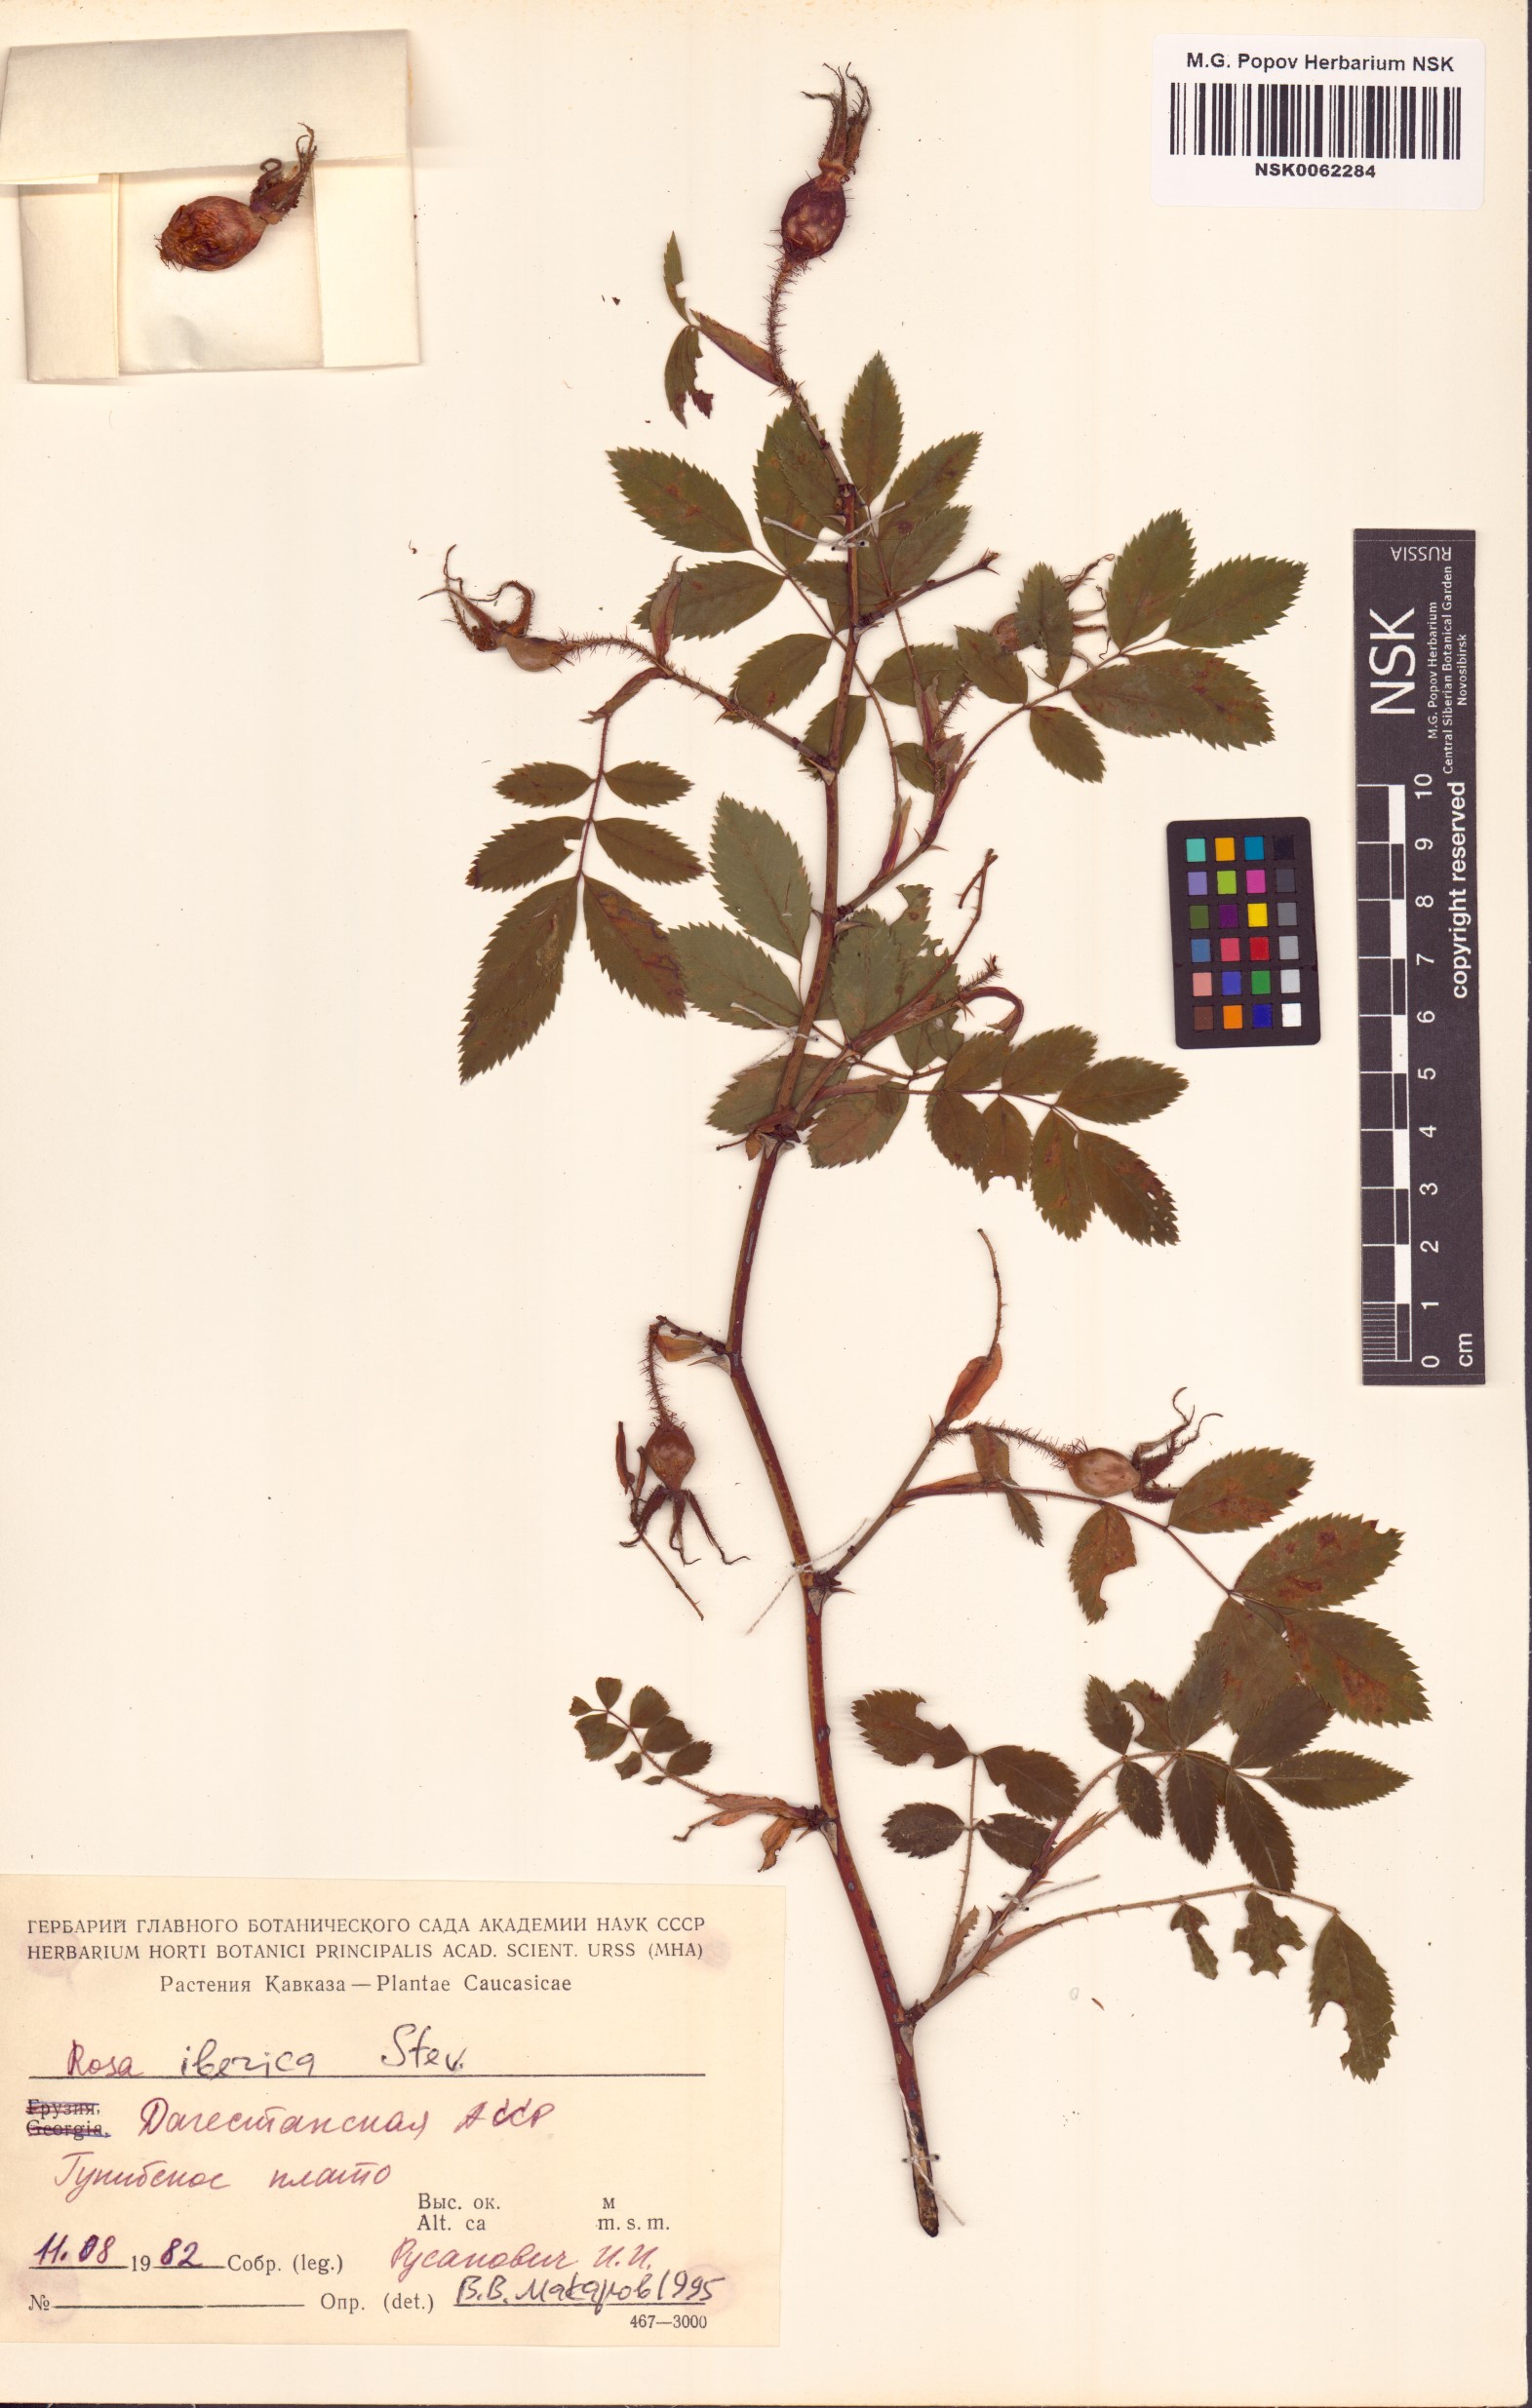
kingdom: Plantae
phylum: Tracheophyta
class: Magnoliopsida
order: Rosales
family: Rosaceae
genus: Rosa
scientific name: Rosa iberica
